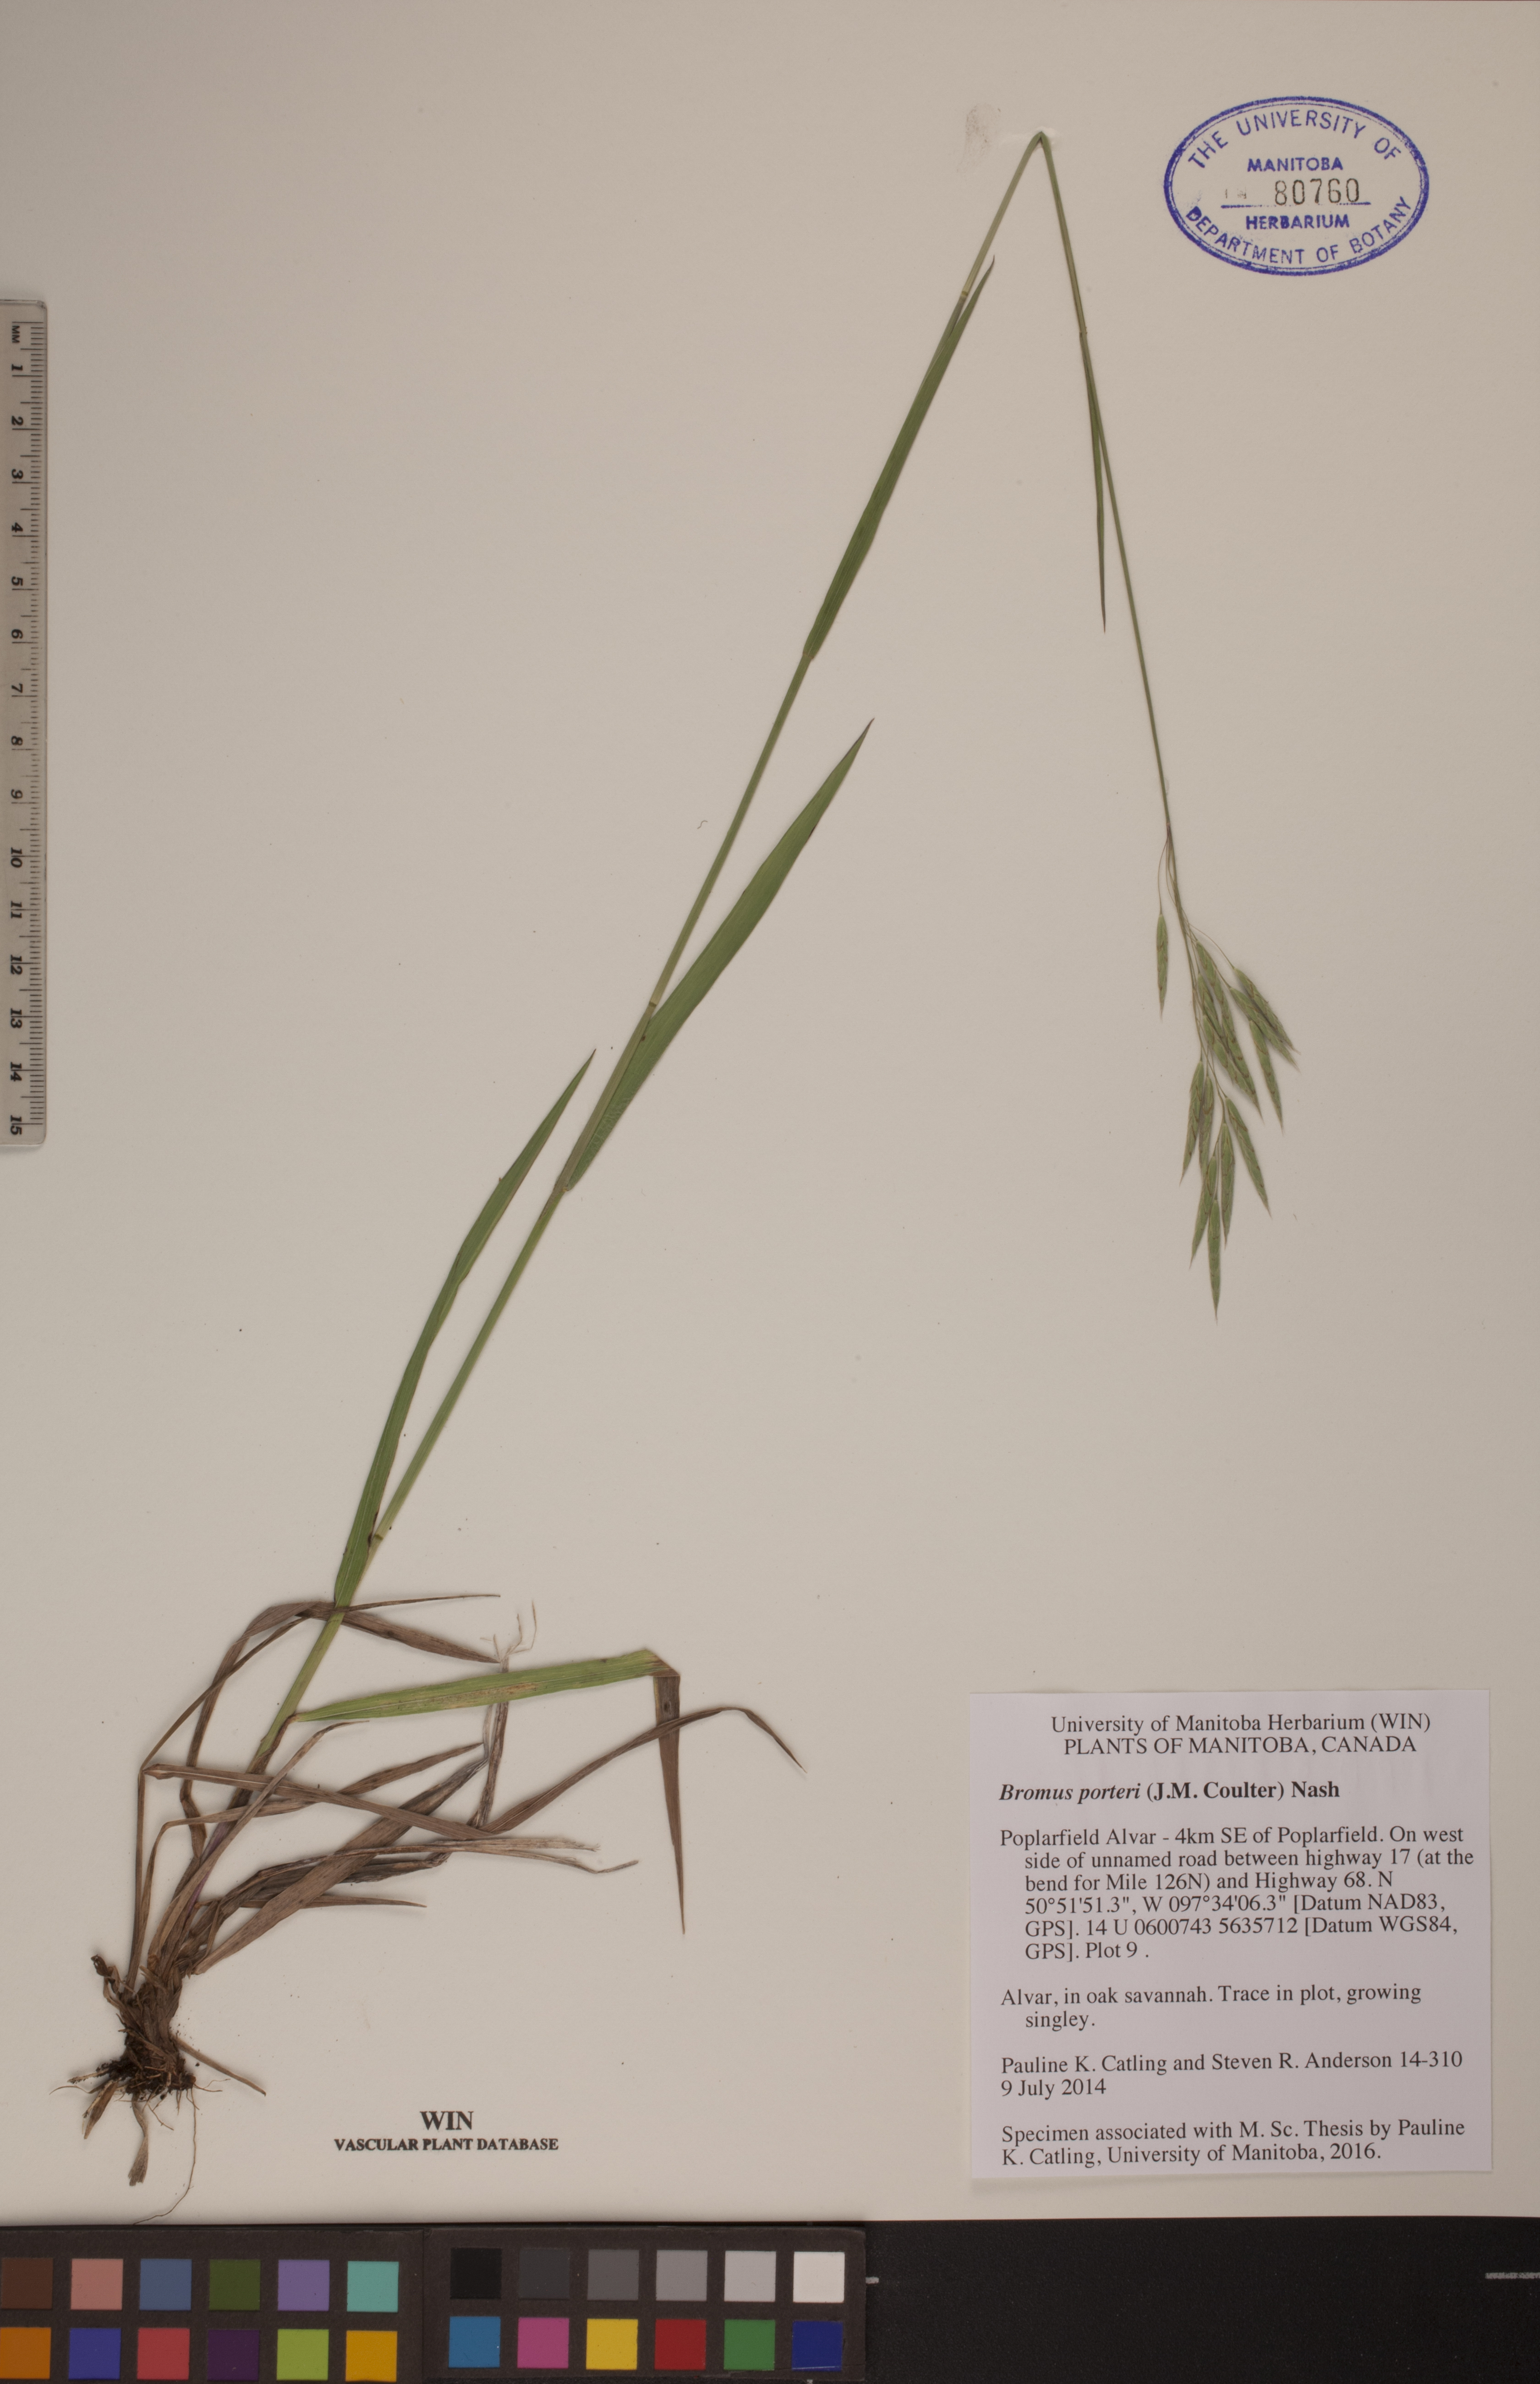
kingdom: Plantae
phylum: Tracheophyta
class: Liliopsida
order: Poales
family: Poaceae
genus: Bromus
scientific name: Bromus porteri
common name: Nodding brome
